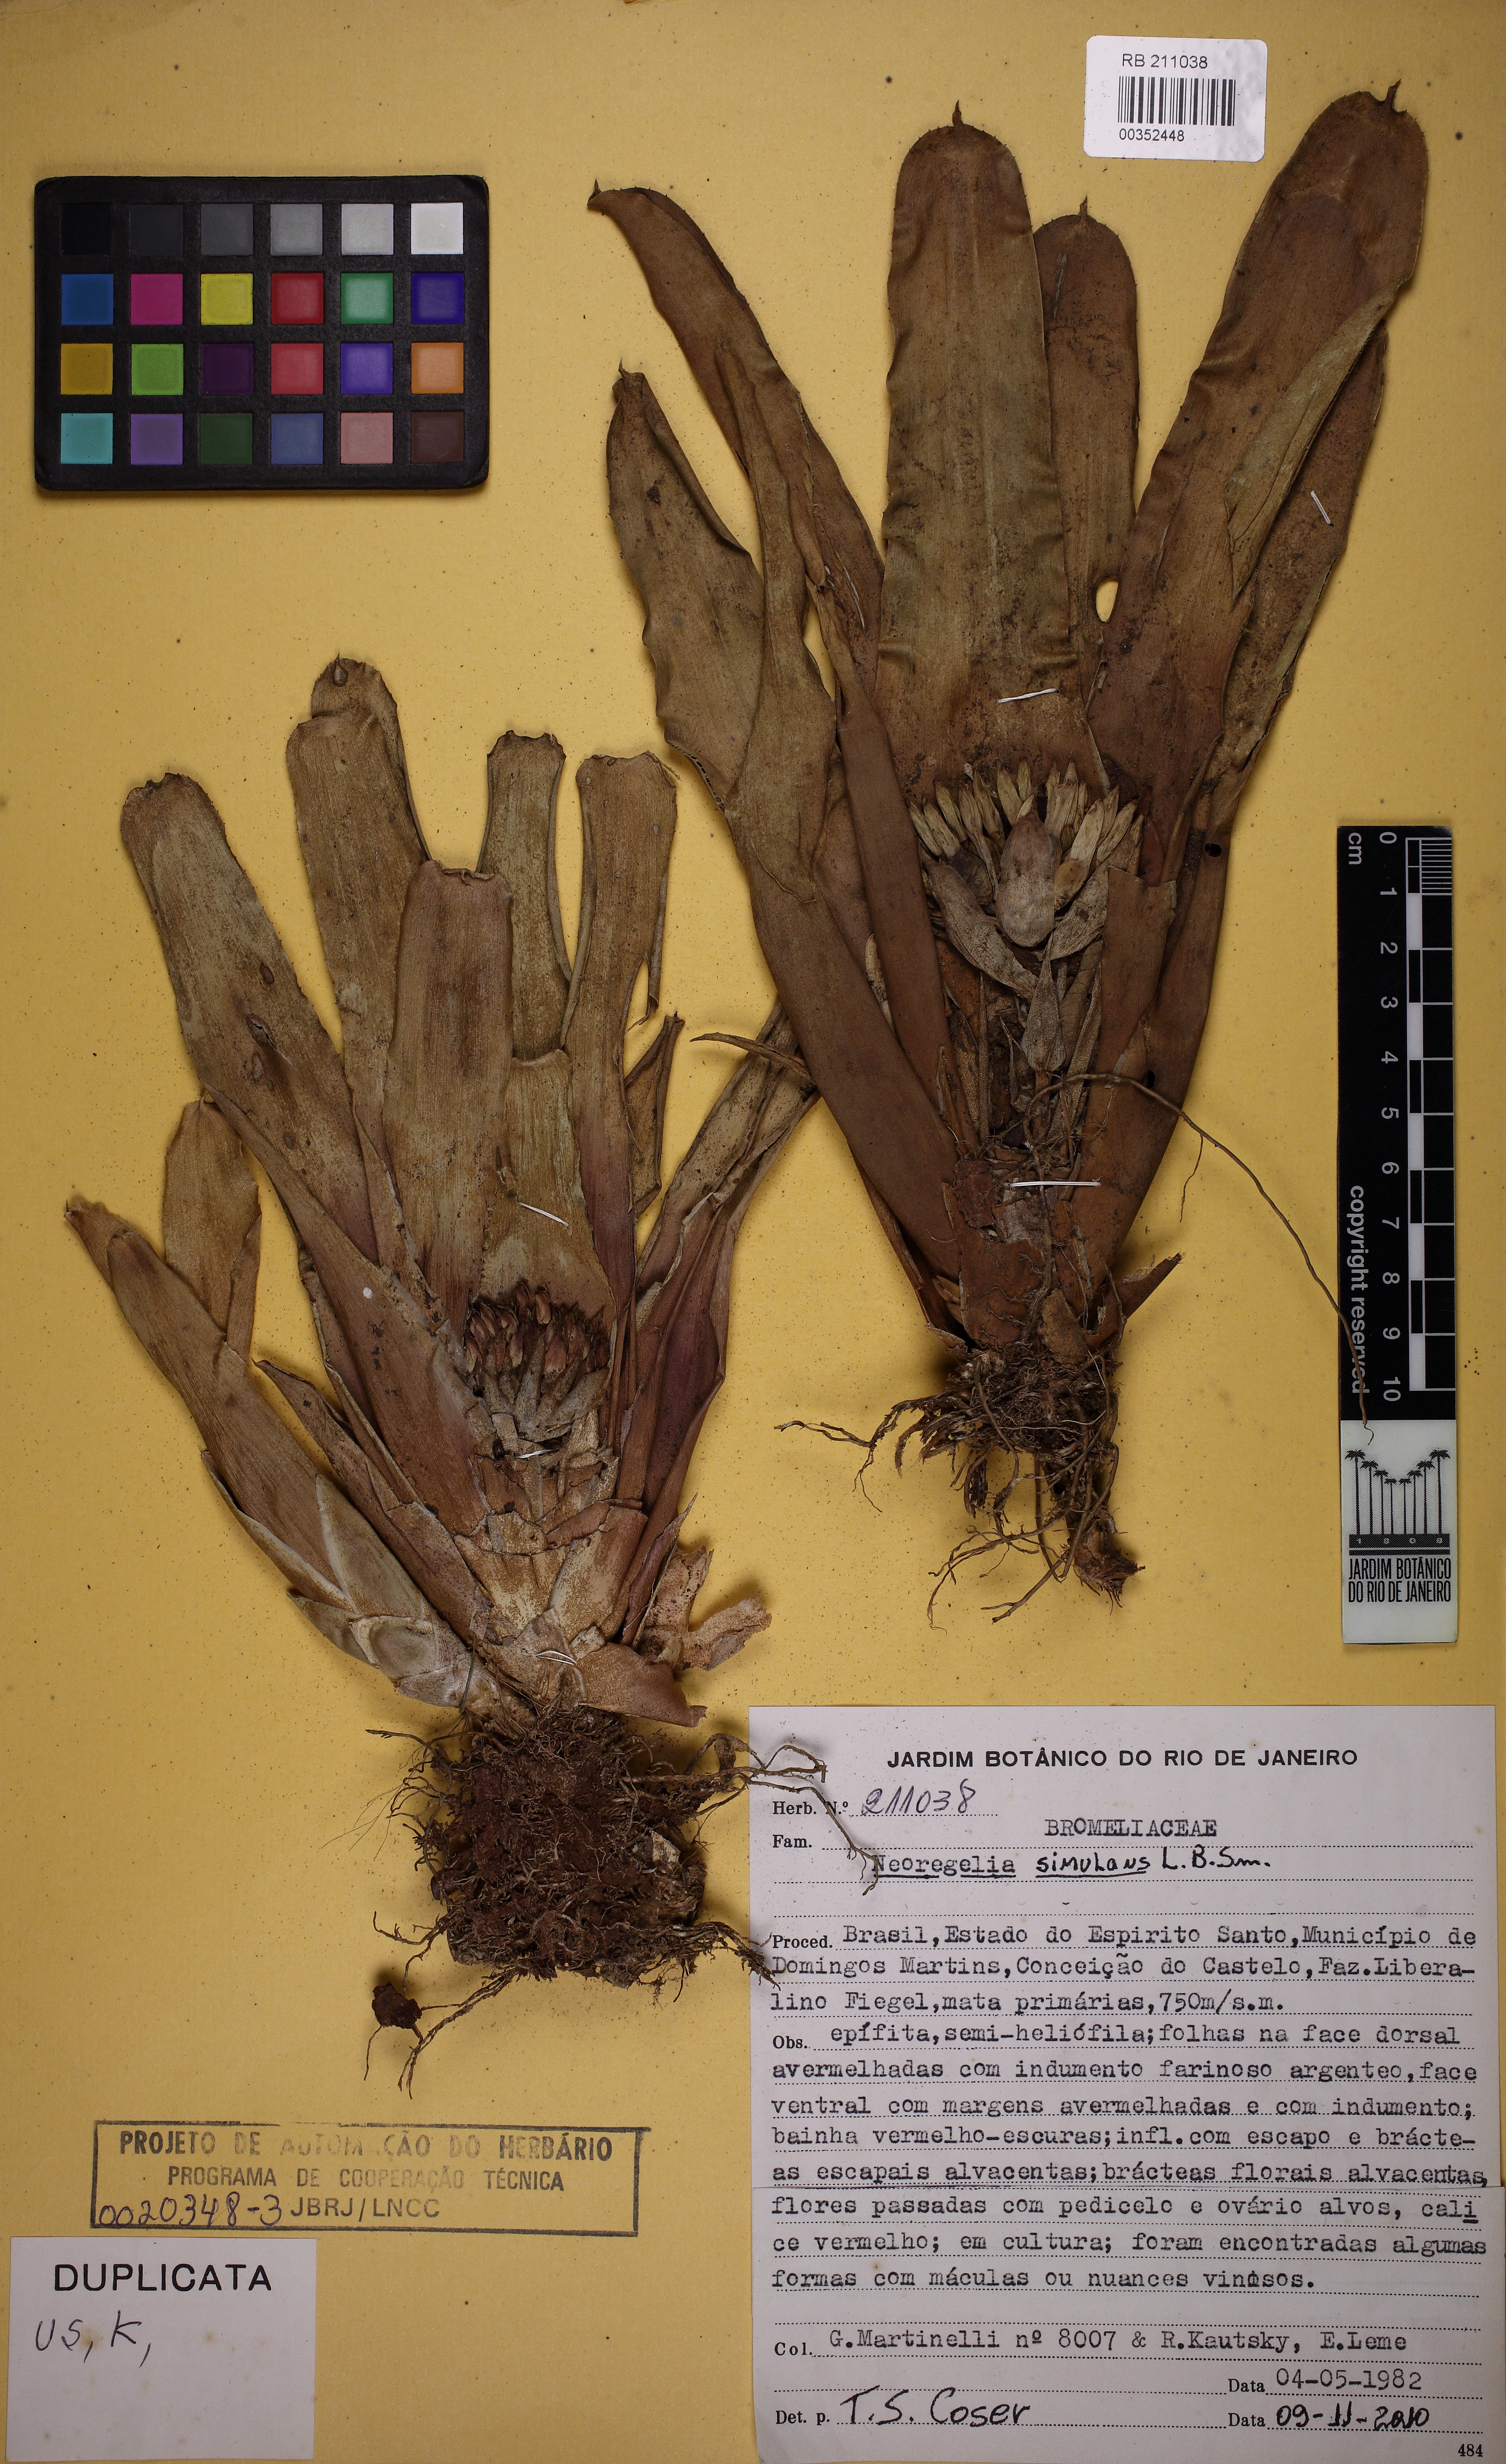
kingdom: Plantae
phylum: Tracheophyta
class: Liliopsida
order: Poales
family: Bromeliaceae
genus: Neoregelia
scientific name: Neoregelia simulans
